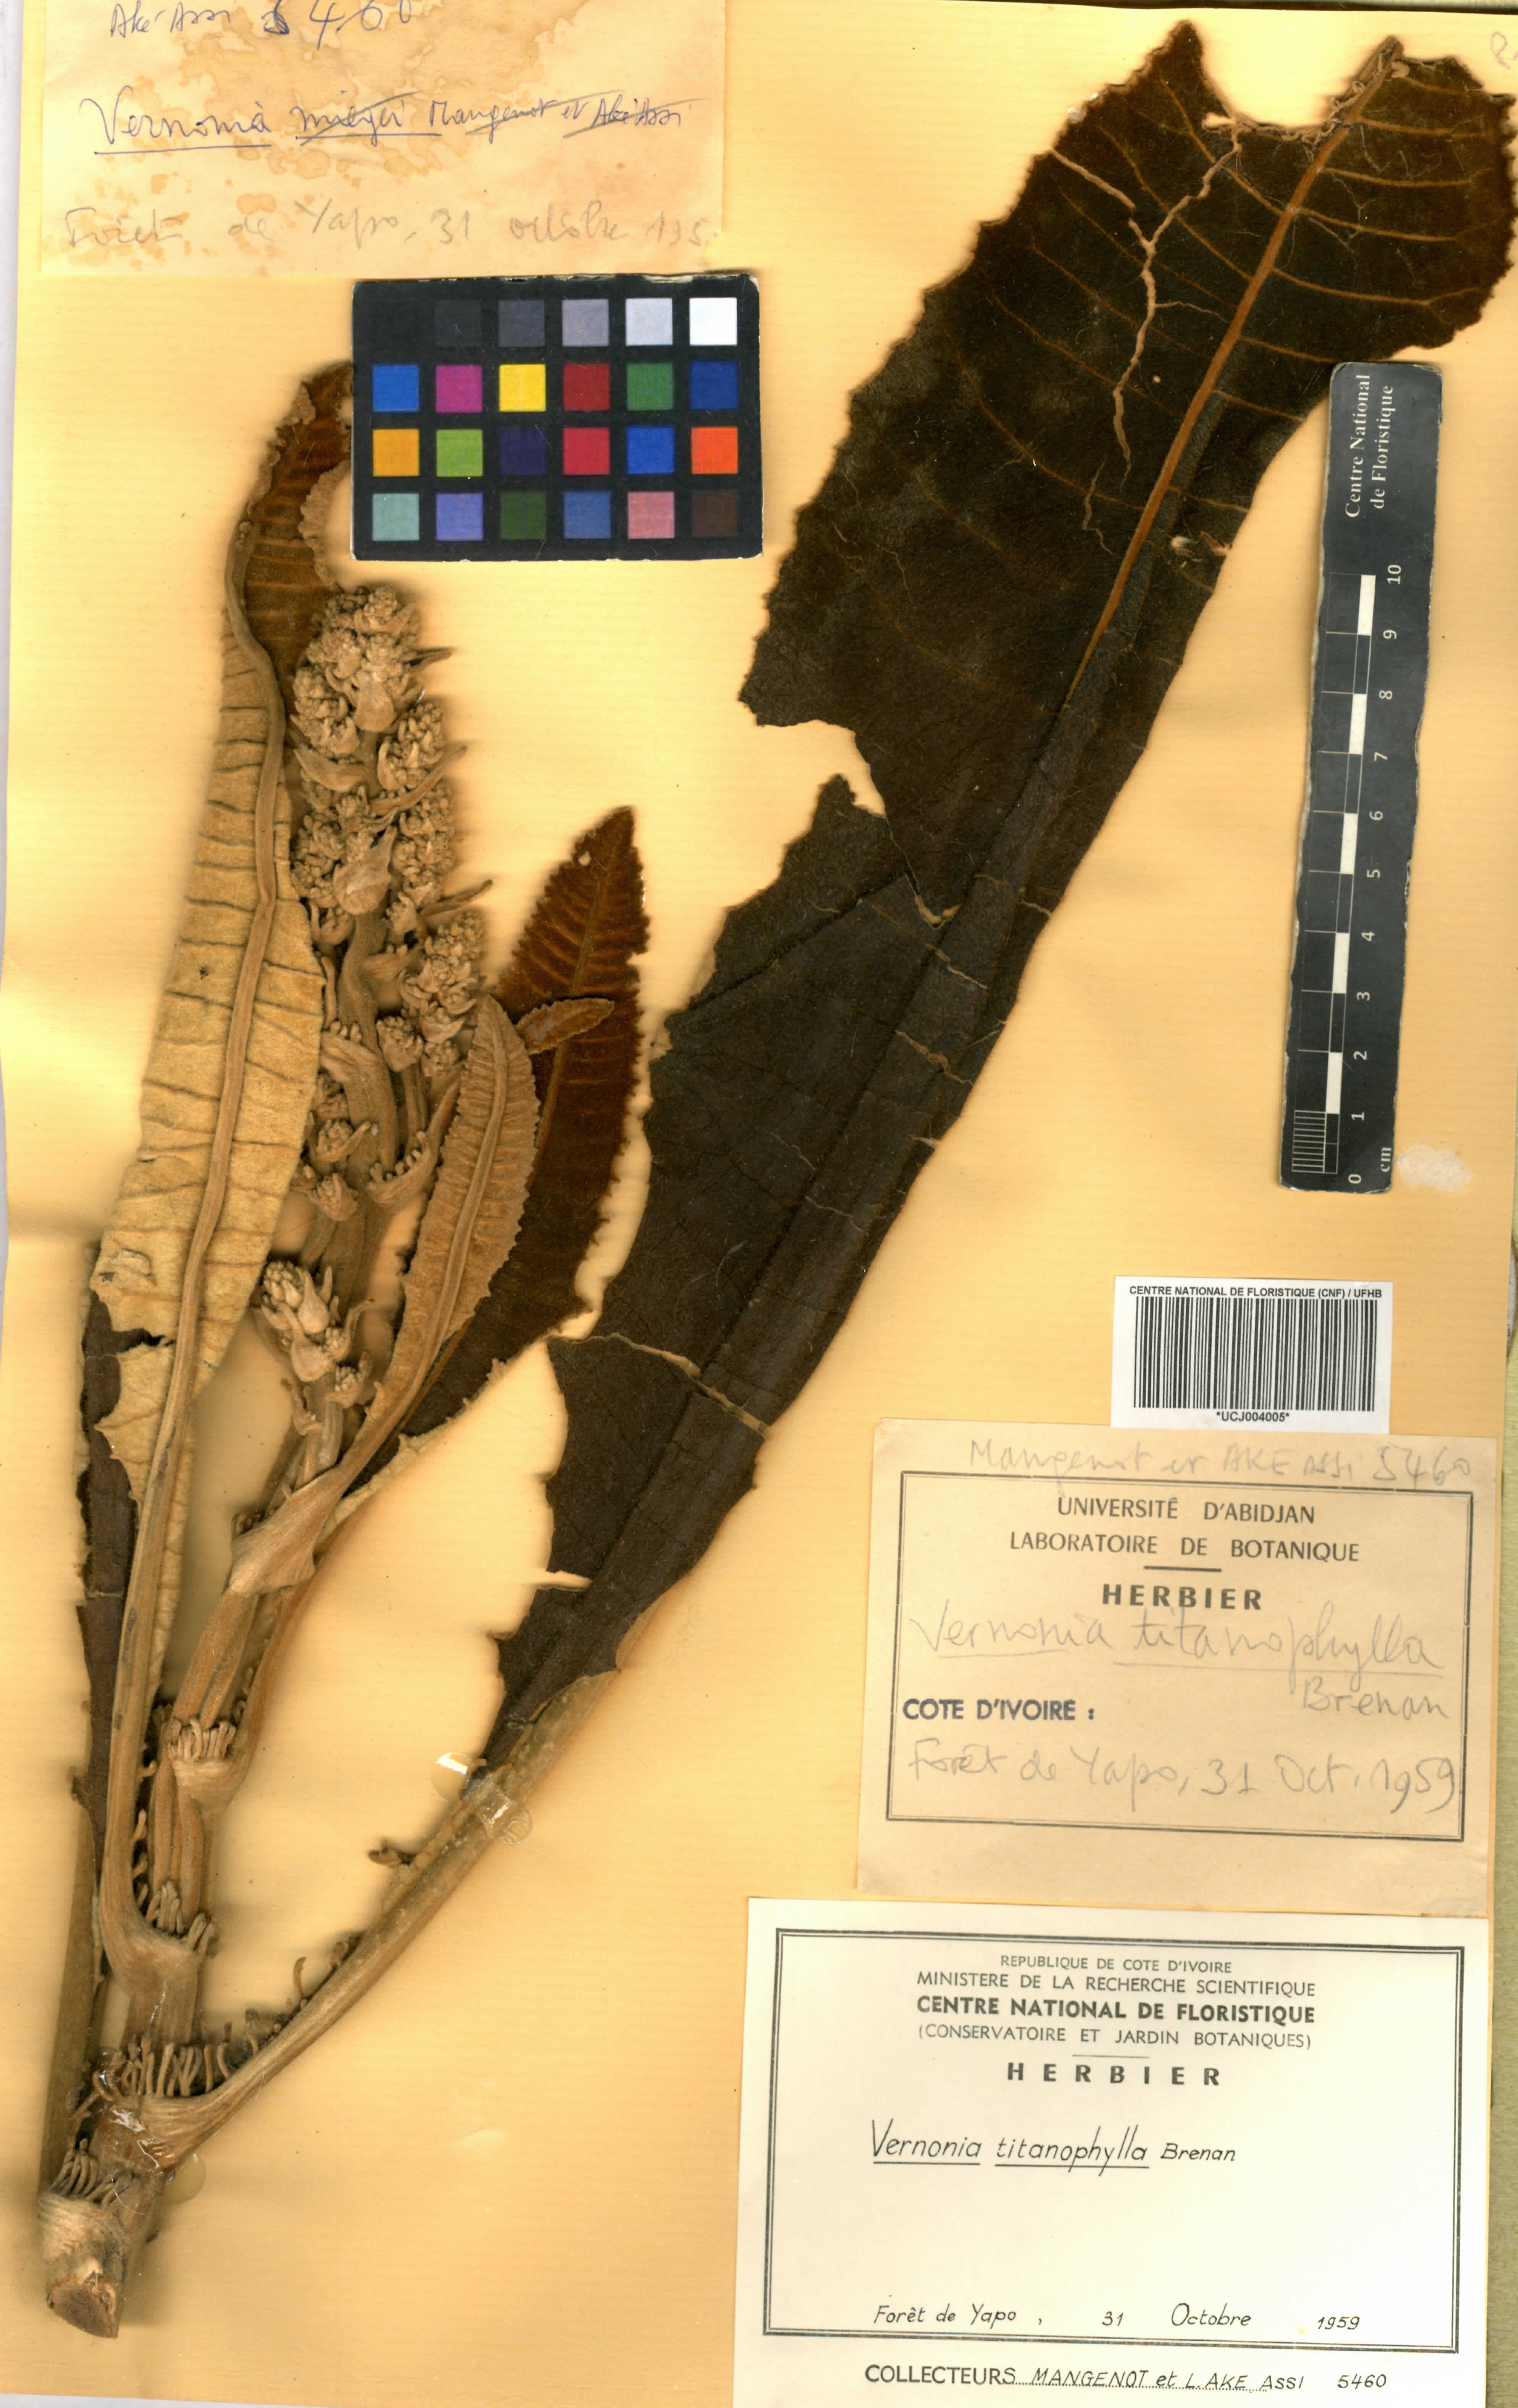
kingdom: Plantae
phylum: Tracheophyta
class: Magnoliopsida
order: Asterales
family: Asteraceae
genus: Brenandendron
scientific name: Brenandendron titanophyllum
